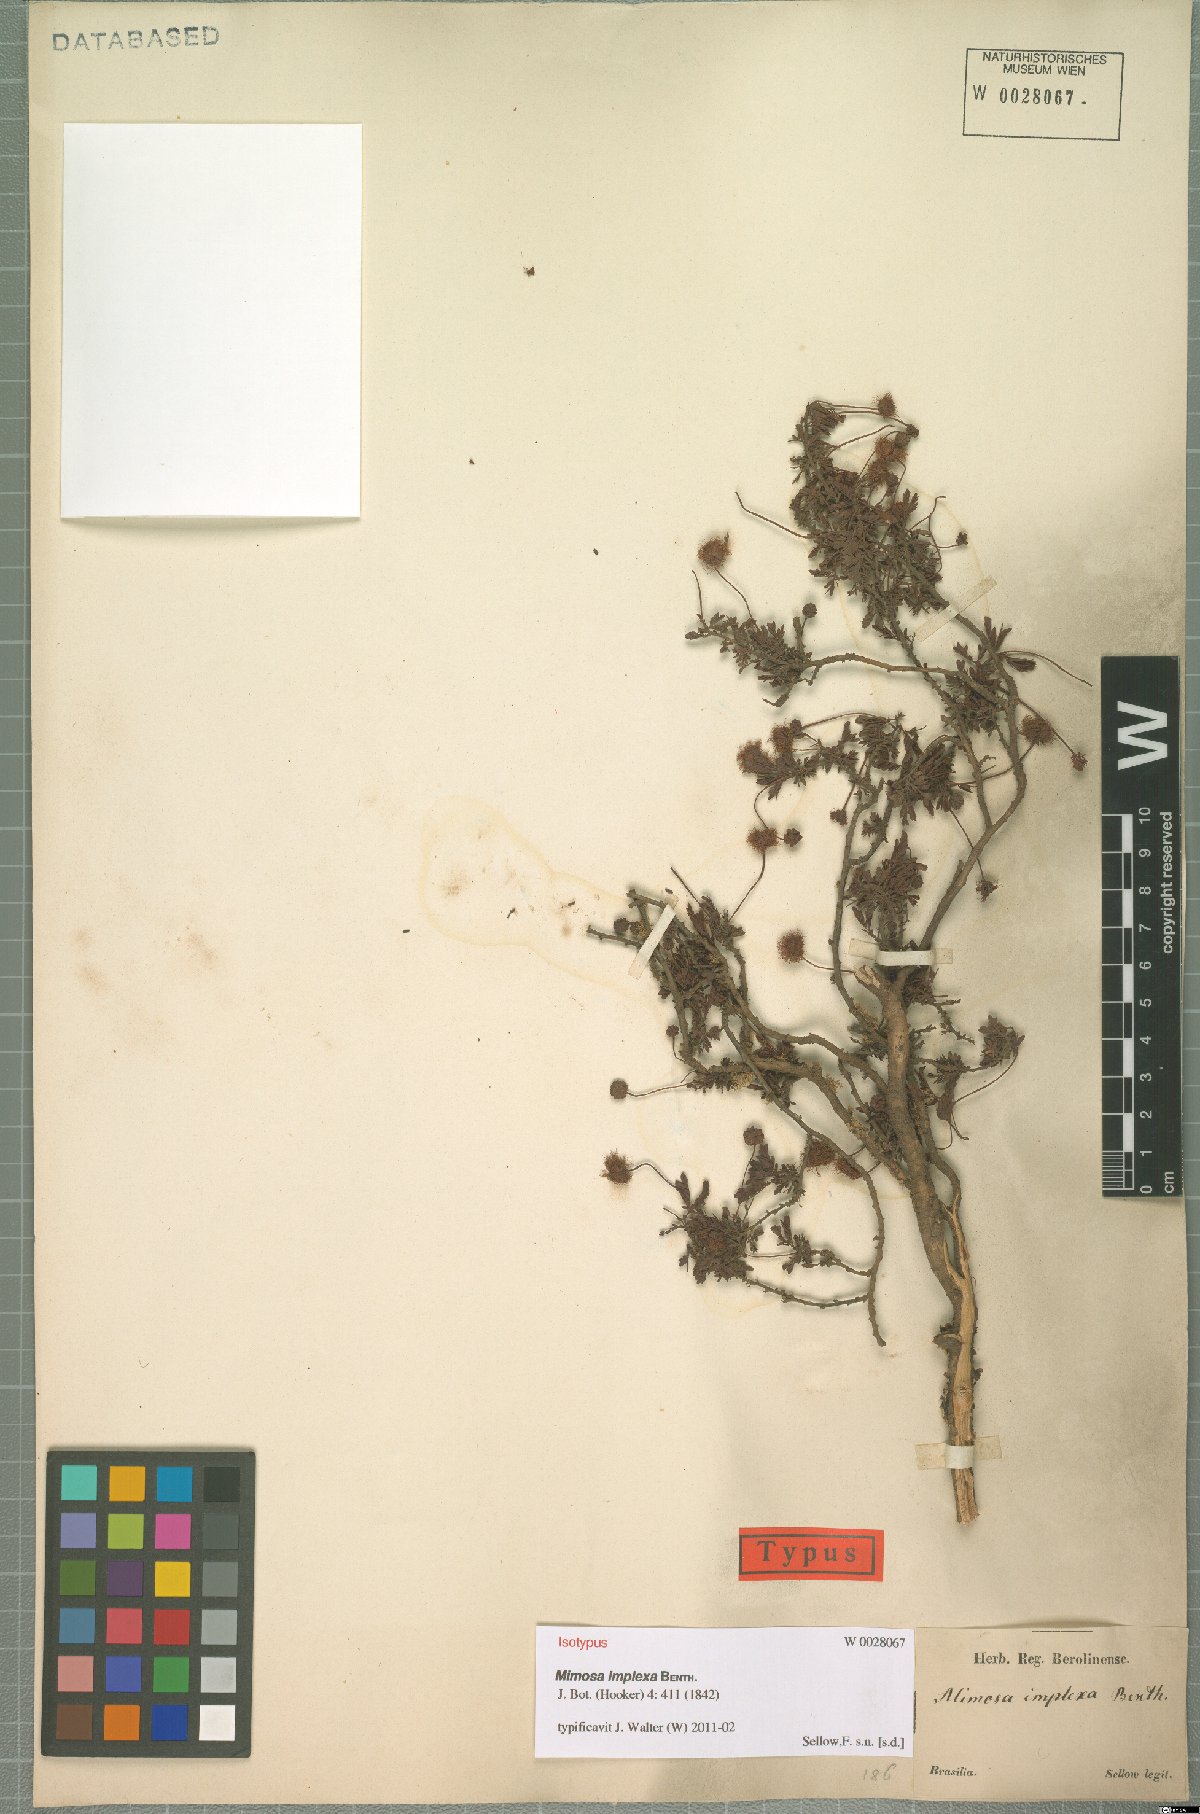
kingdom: Plantae
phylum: Tracheophyta
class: Magnoliopsida
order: Fabales
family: Fabaceae
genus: Mimosa
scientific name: Mimosa implexa
